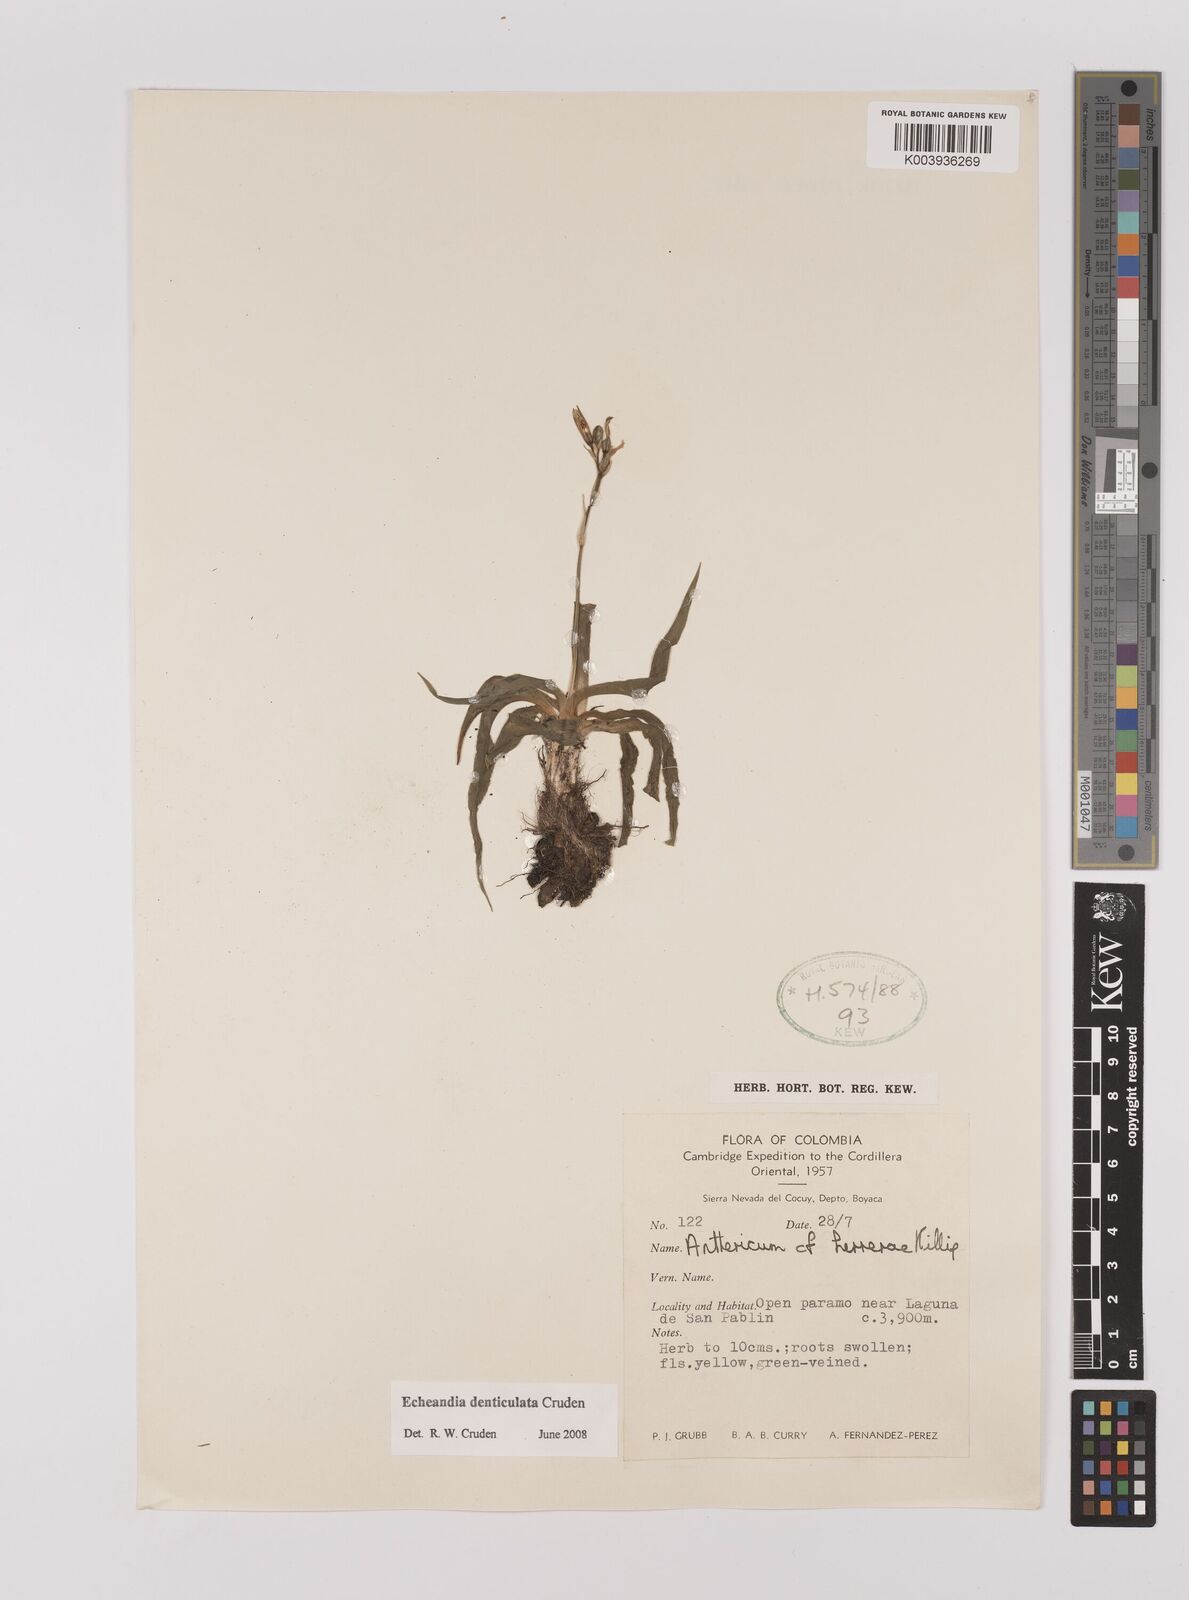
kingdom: Plantae
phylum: Tracheophyta
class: Liliopsida
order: Asparagales
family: Asparagaceae
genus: Echeandia
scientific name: Echeandia flavescens
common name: Amberlily
